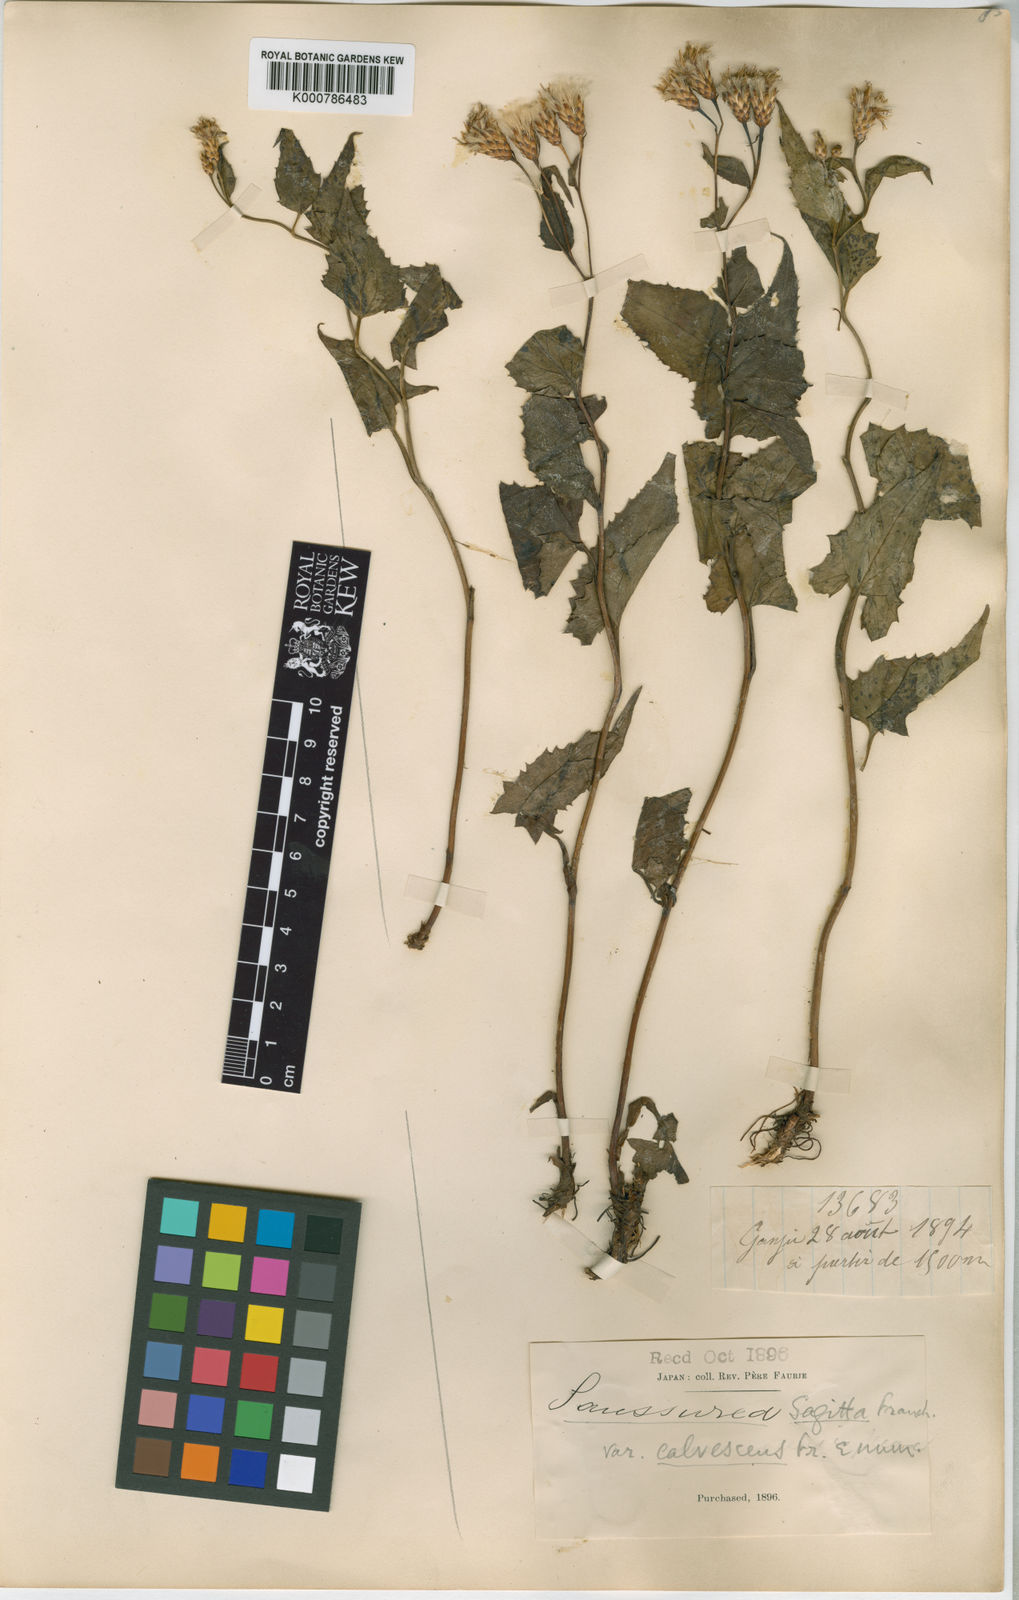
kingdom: Plantae
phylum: Tracheophyta
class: Magnoliopsida
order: Asterales
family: Asteraceae
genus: Saussurea
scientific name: Saussurea sagitta
